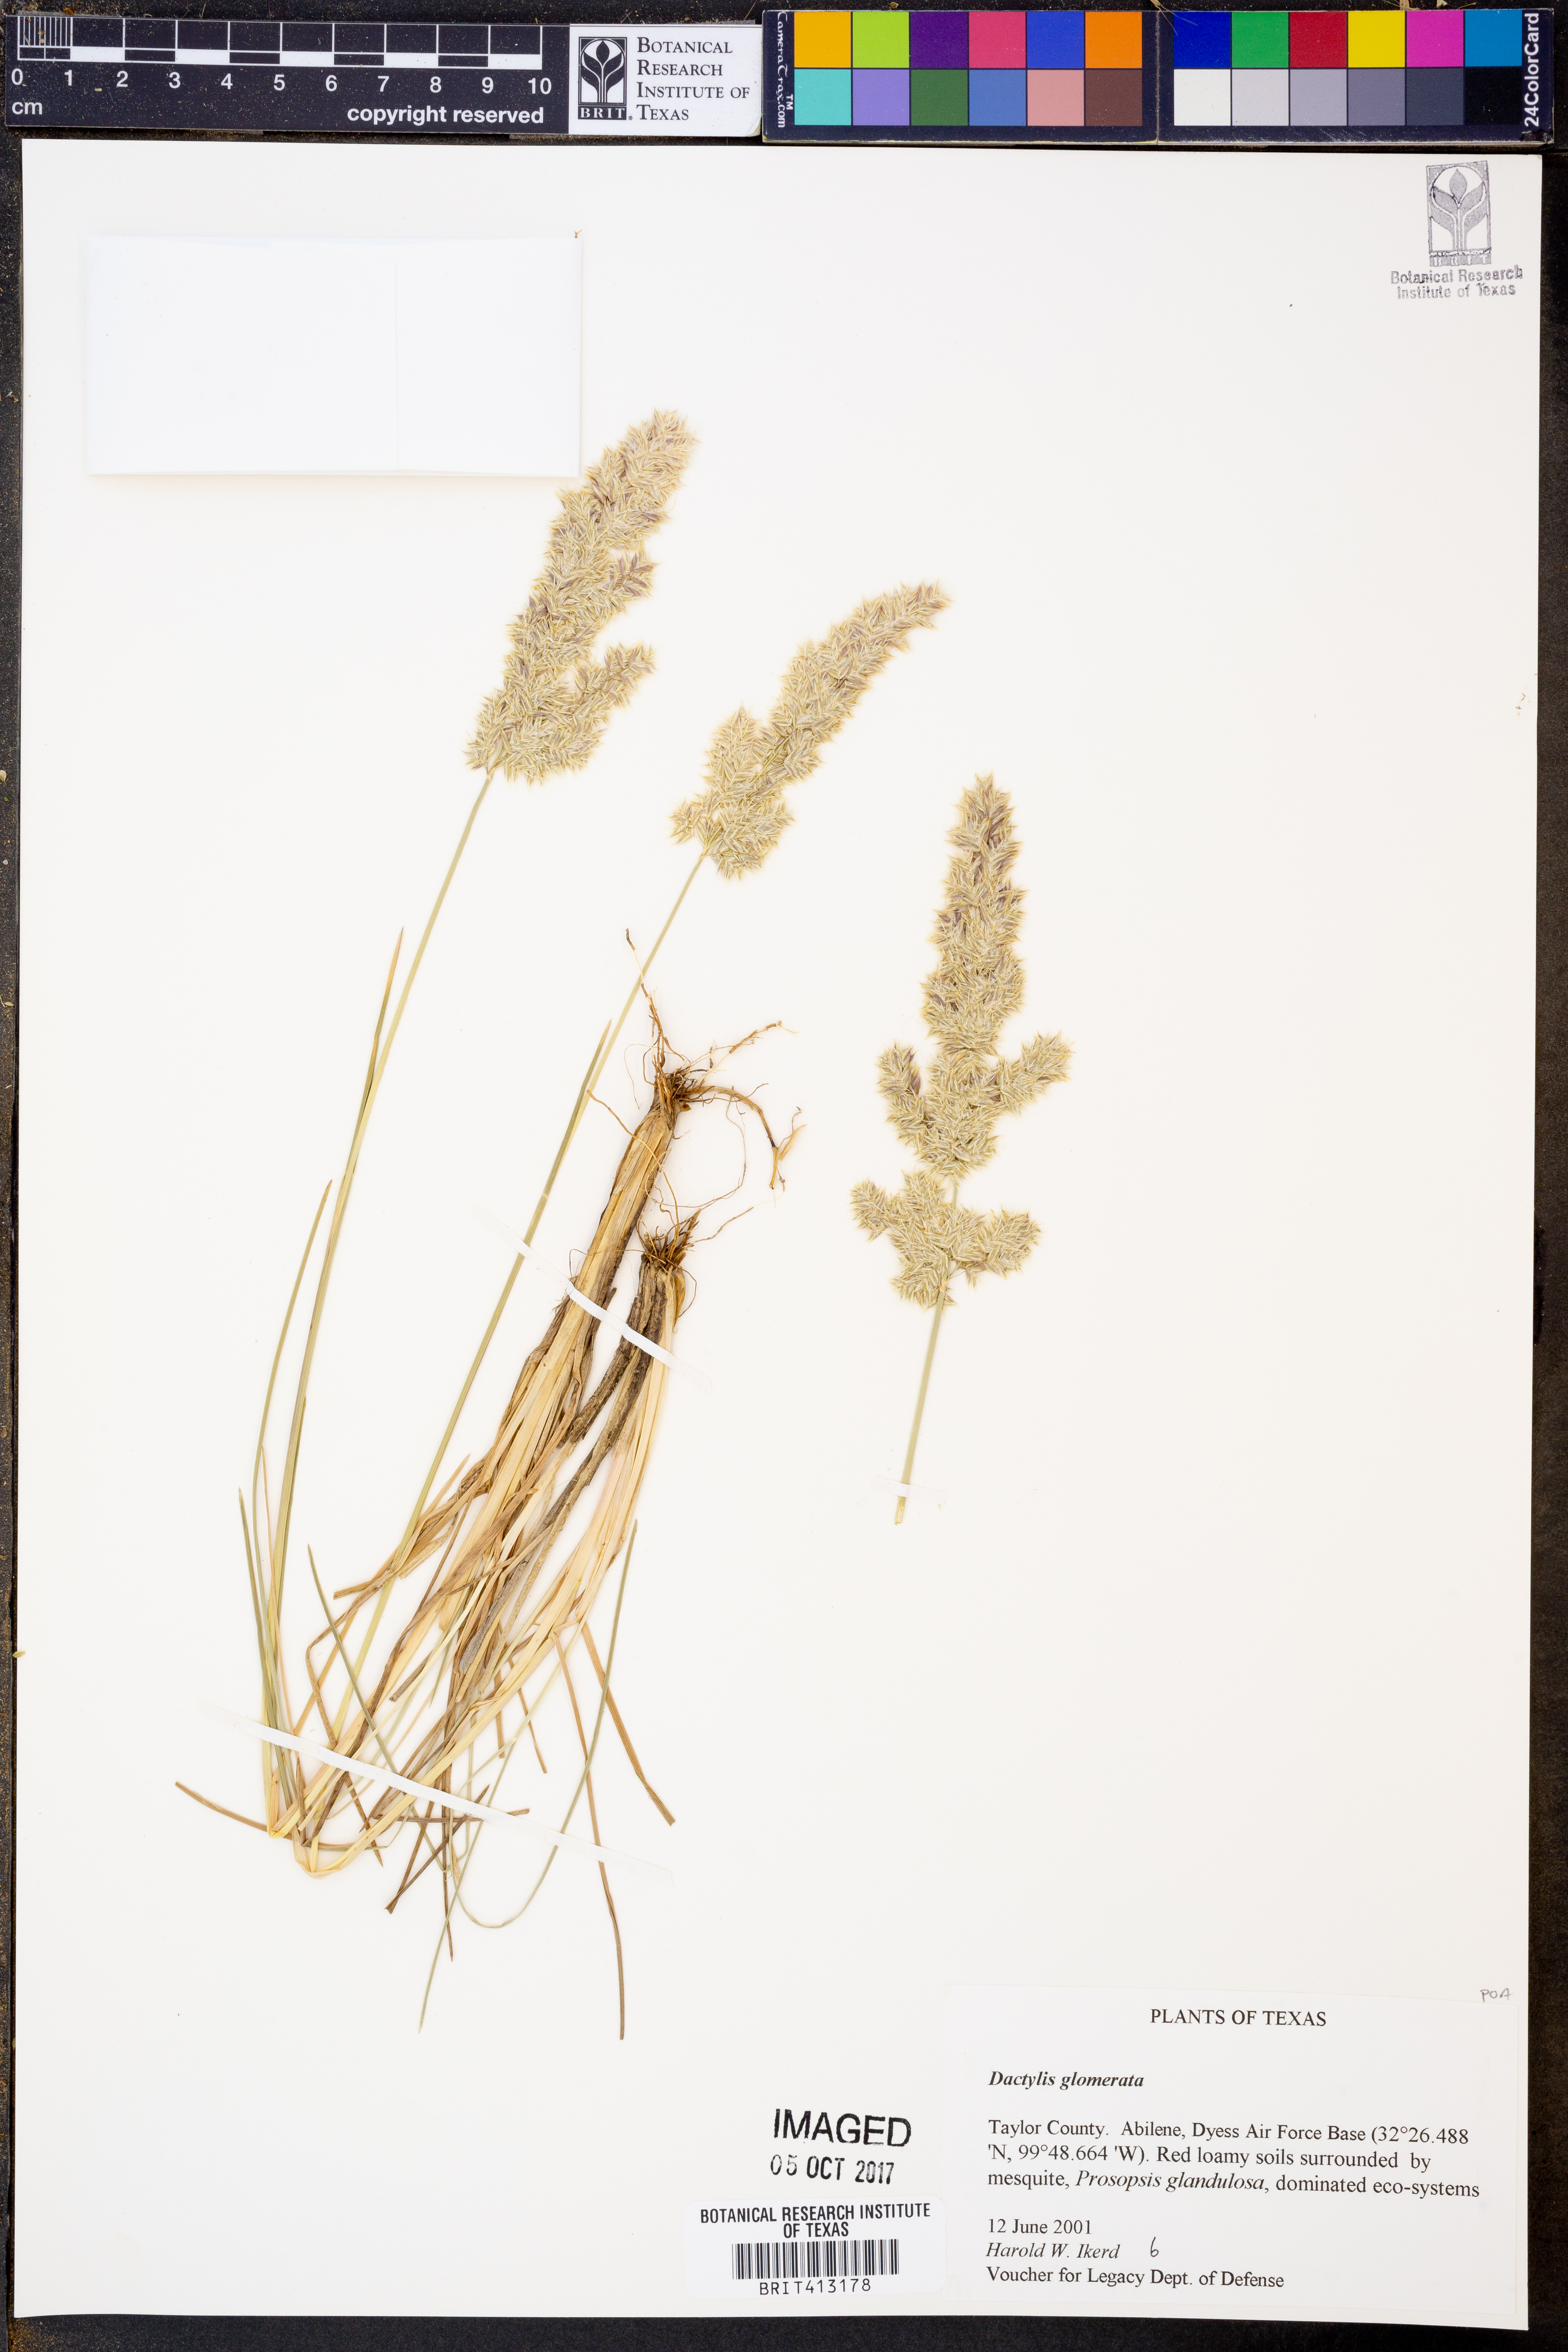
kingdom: Plantae
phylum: Tracheophyta
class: Liliopsida
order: Poales
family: Poaceae
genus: Dactylis
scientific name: Dactylis glomerata
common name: Orchardgrass
